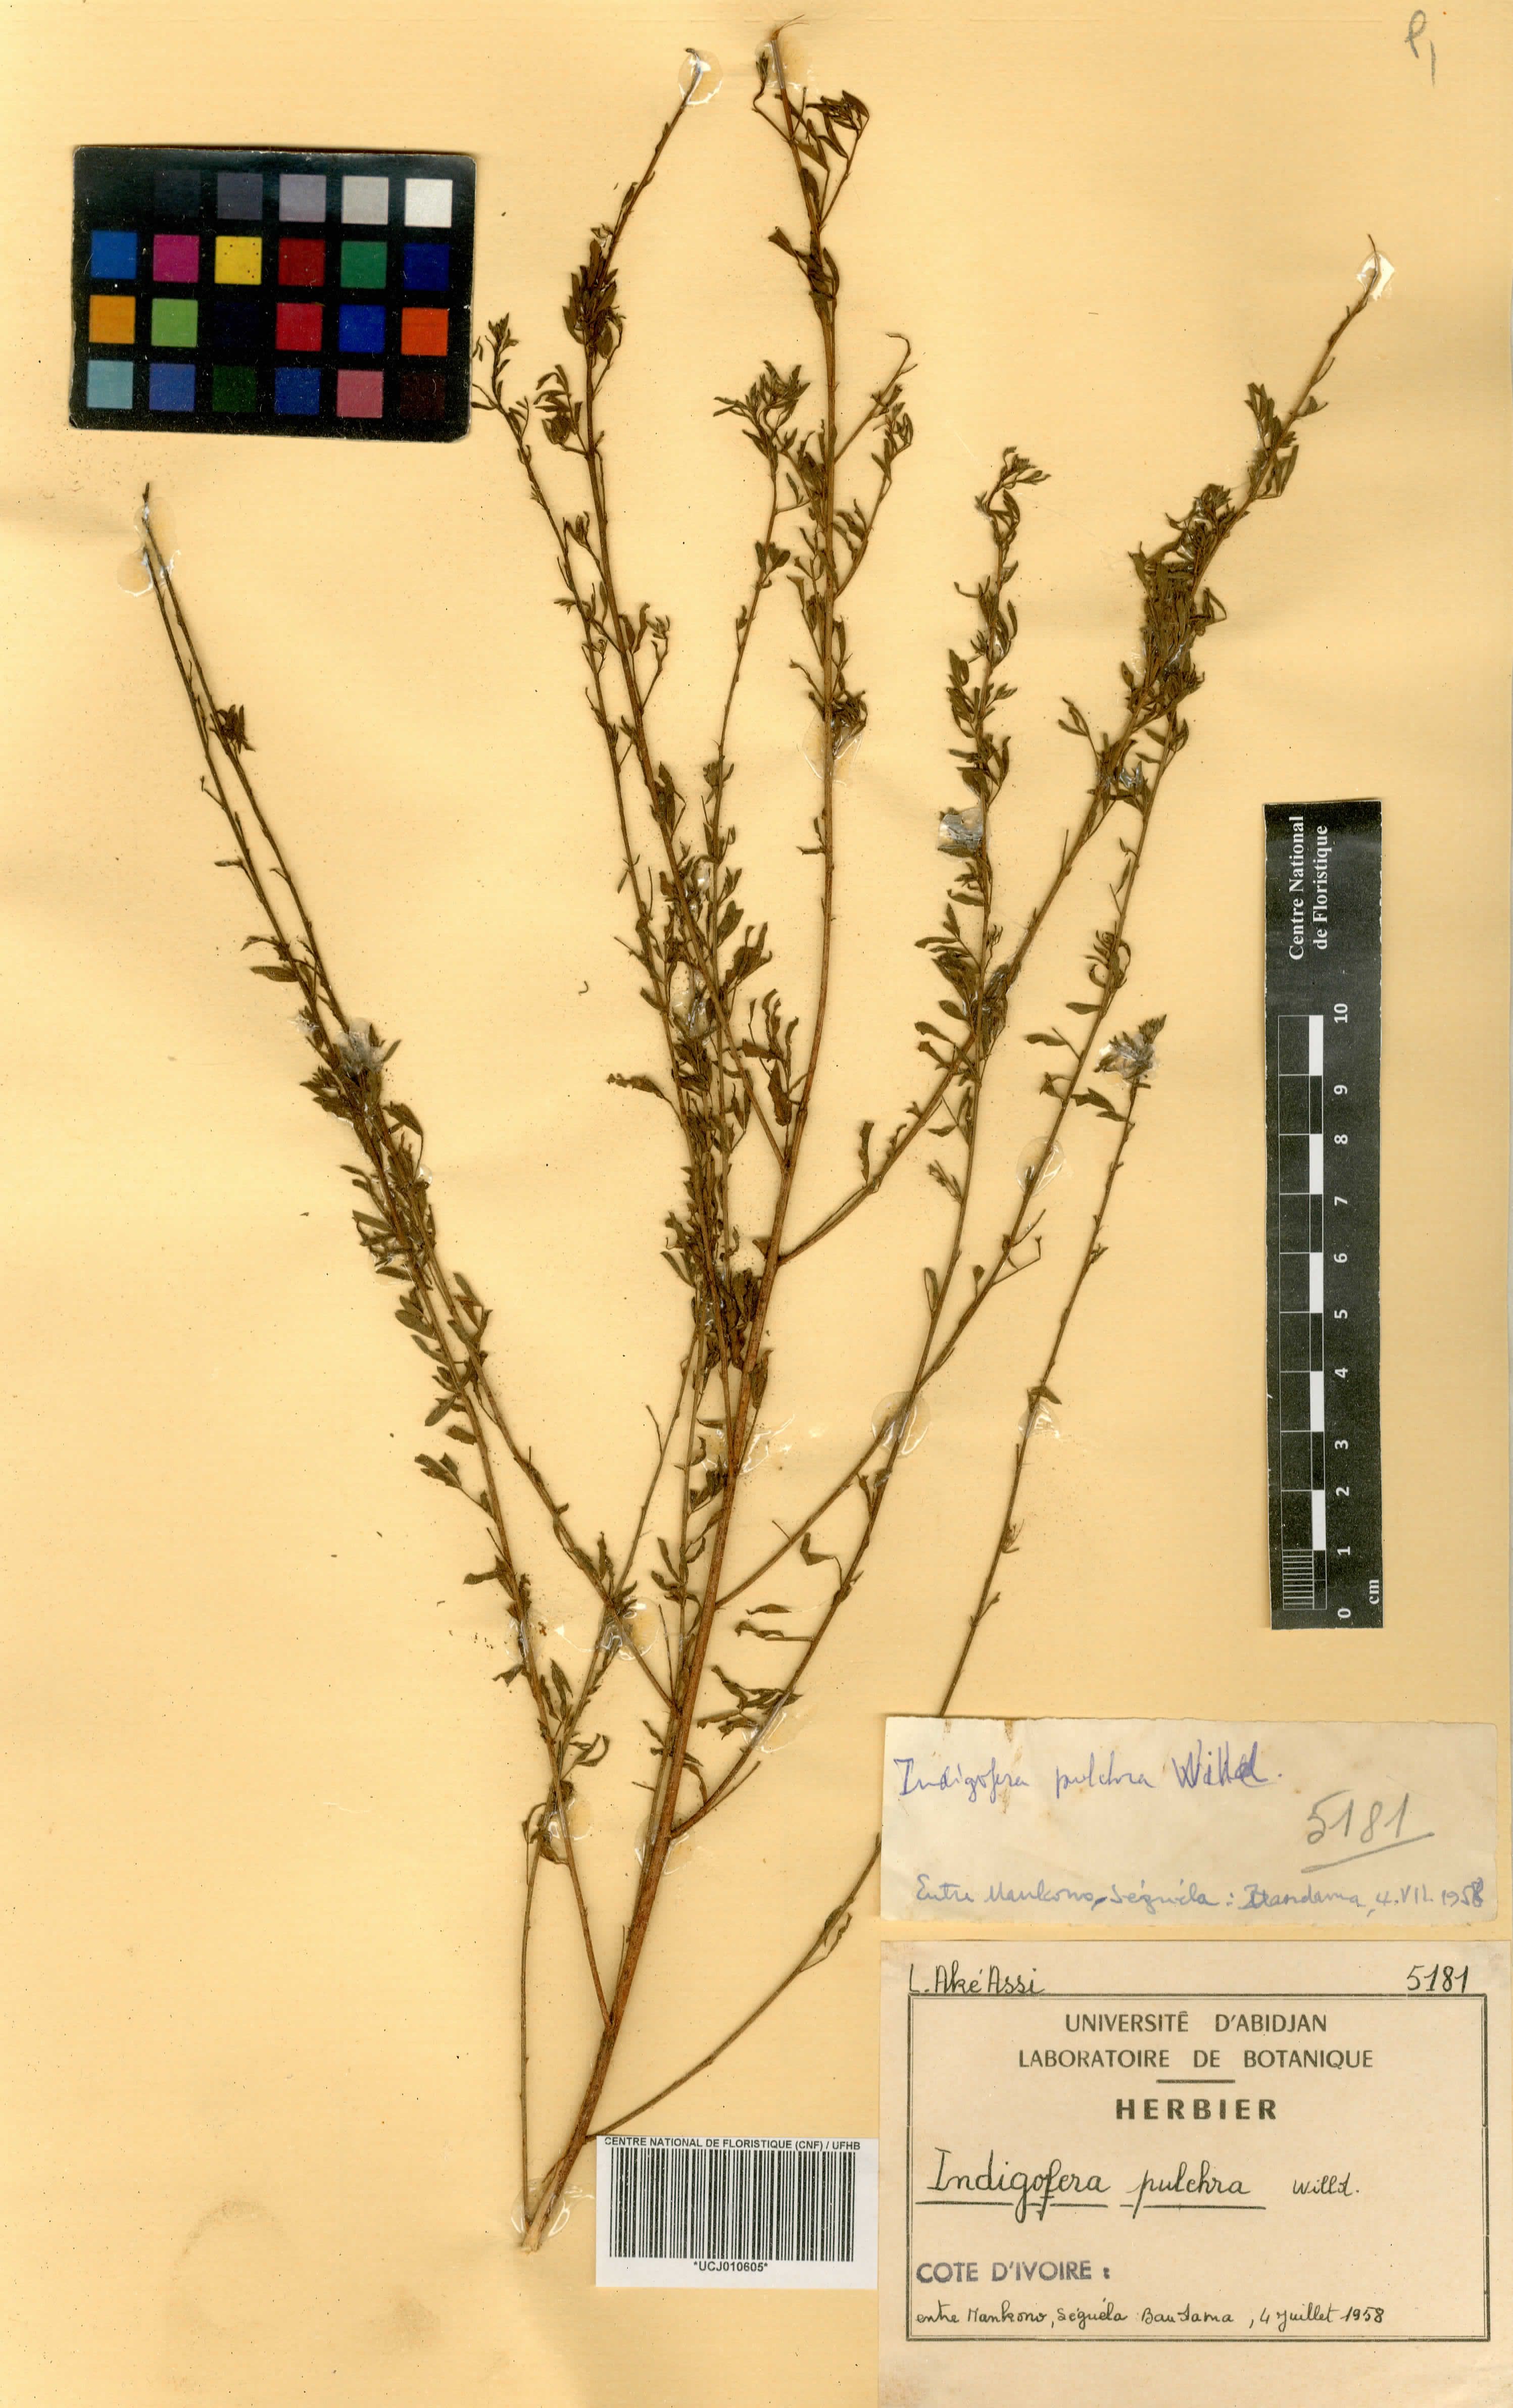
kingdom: Plantae
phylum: Tracheophyta
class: Magnoliopsida
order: Fabales
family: Fabaceae
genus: Indigofera
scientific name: Indigofera pulchra
